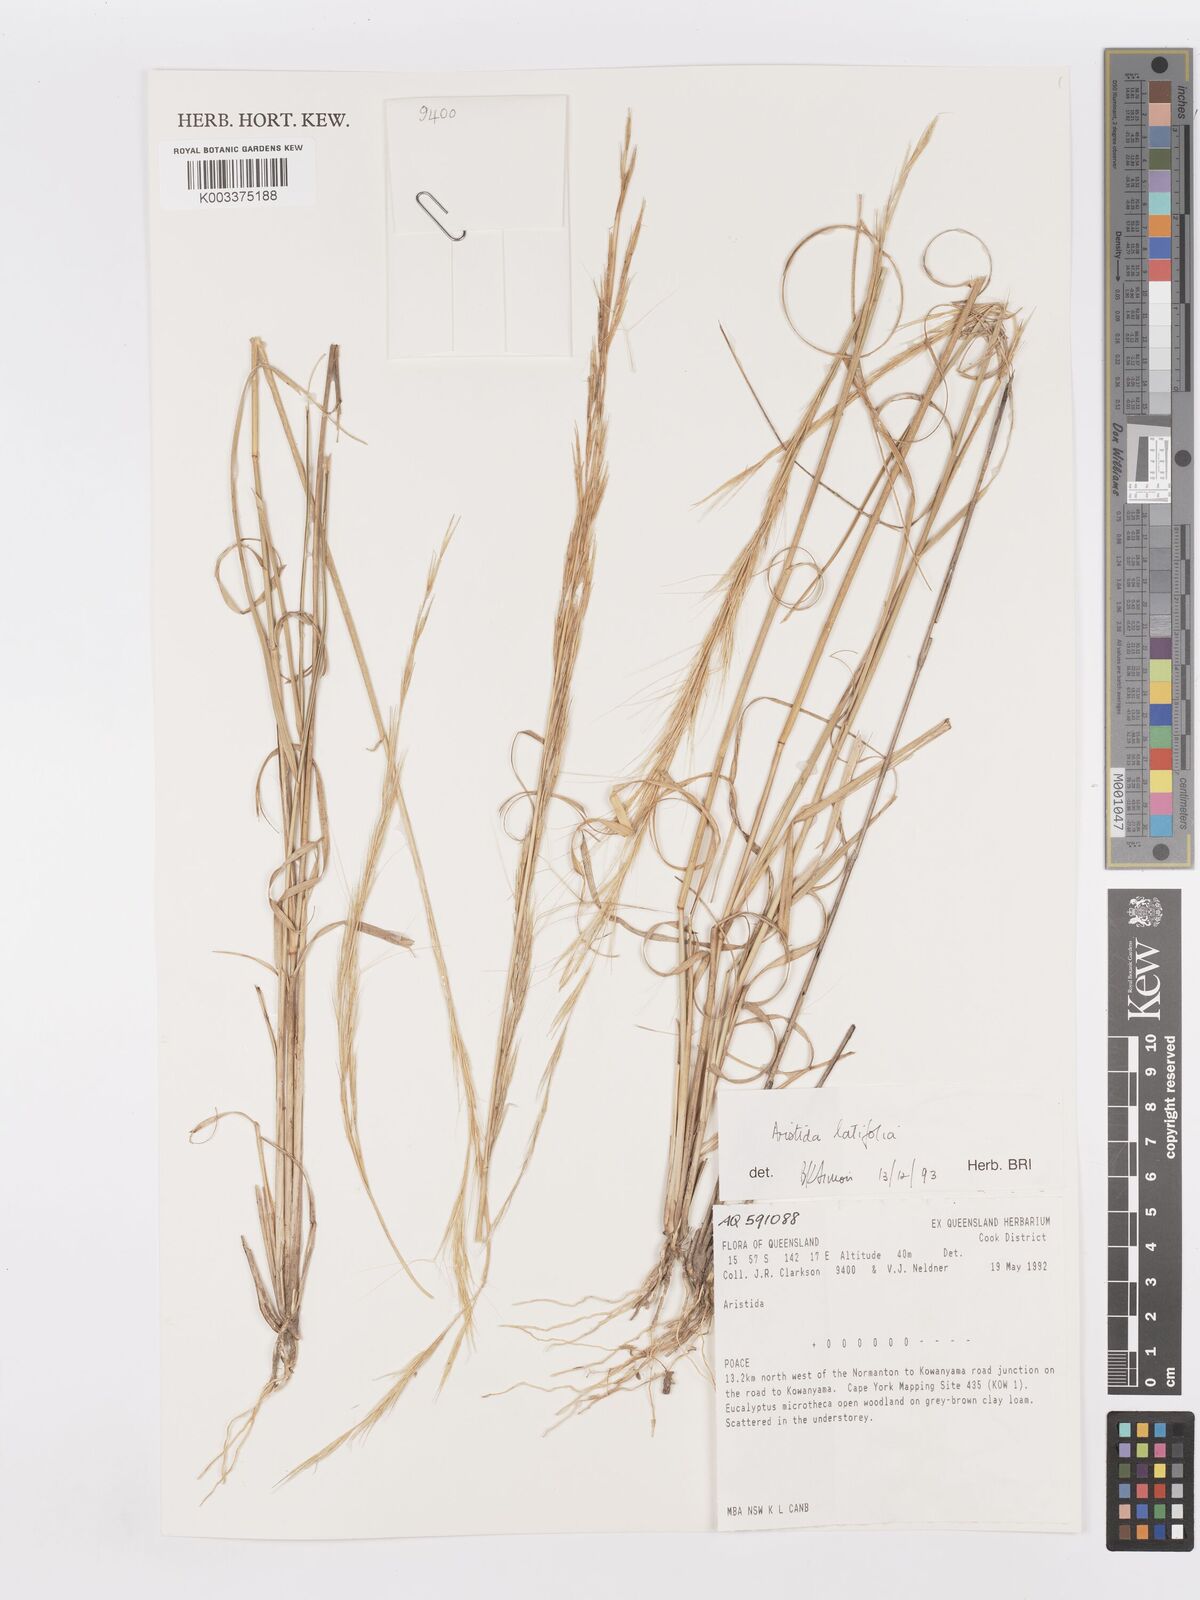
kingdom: Plantae
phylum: Tracheophyta
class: Liliopsida
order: Poales
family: Poaceae
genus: Aristida
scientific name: Aristida latifolia
